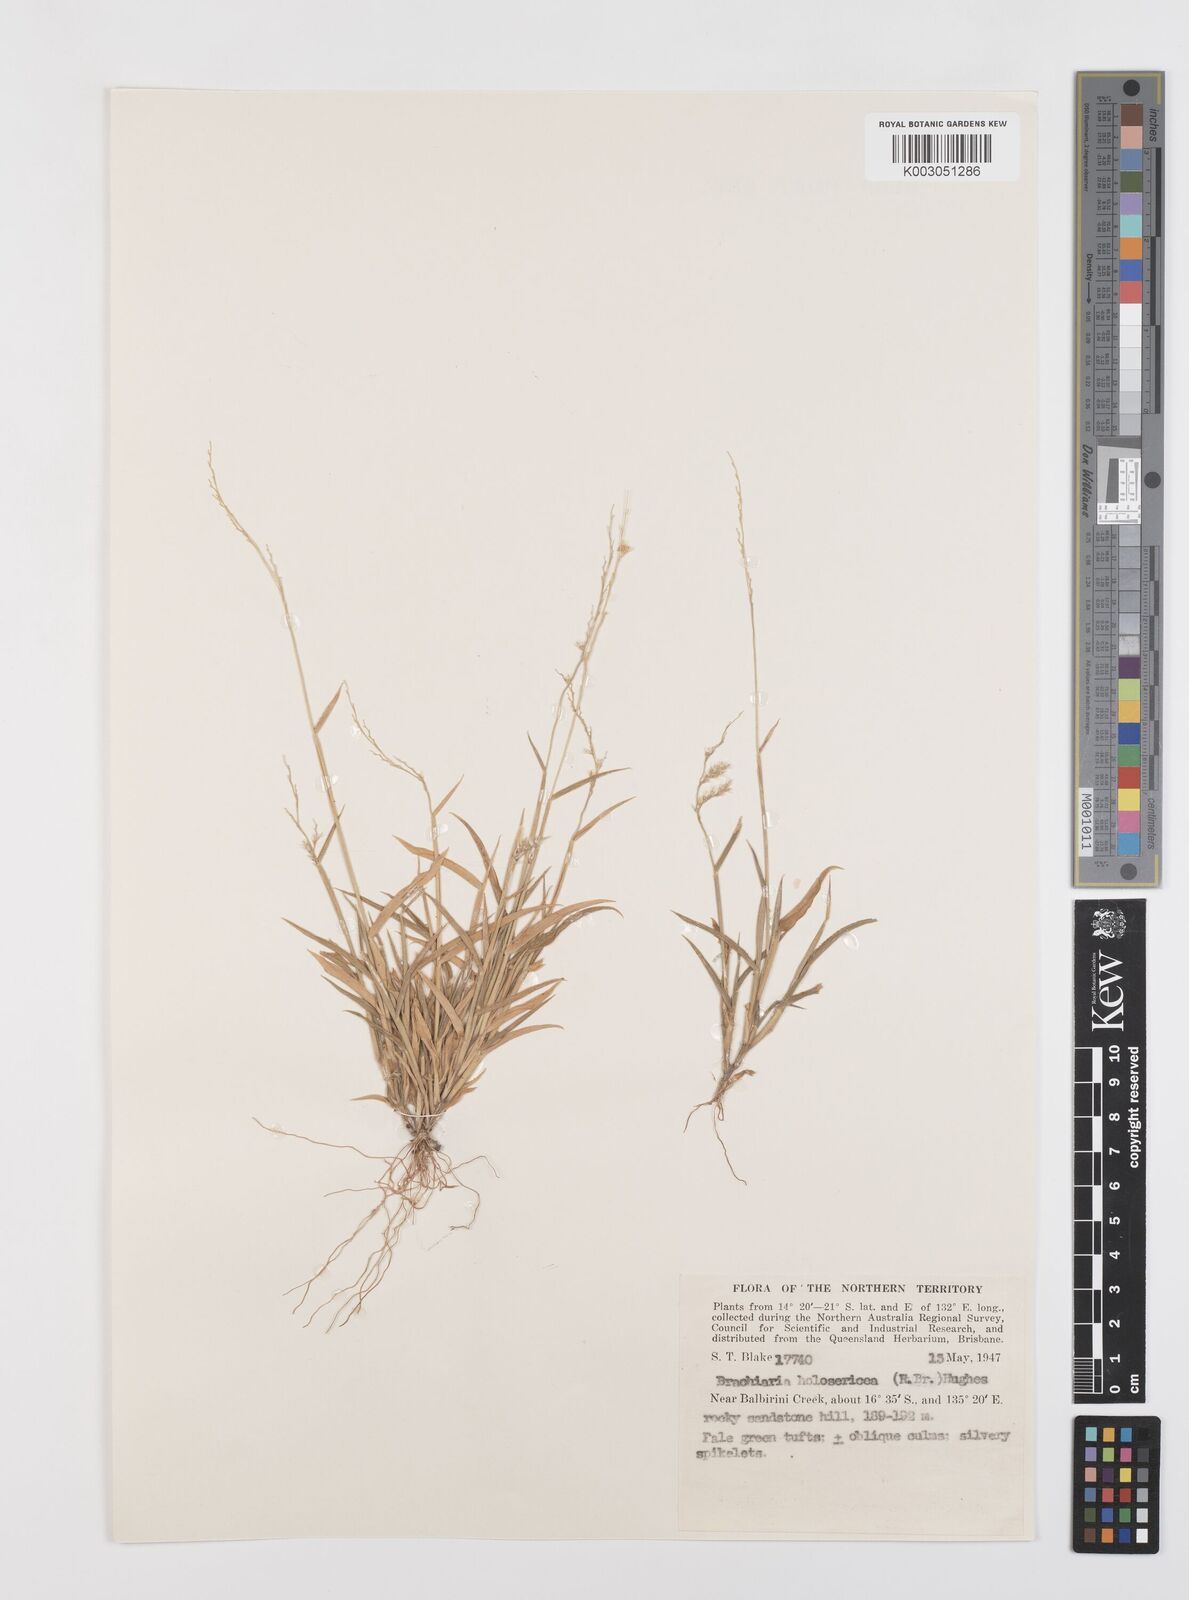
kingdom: Plantae
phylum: Tracheophyta
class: Liliopsida
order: Poales
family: Poaceae
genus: Urochloa
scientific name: Urochloa holosericea
